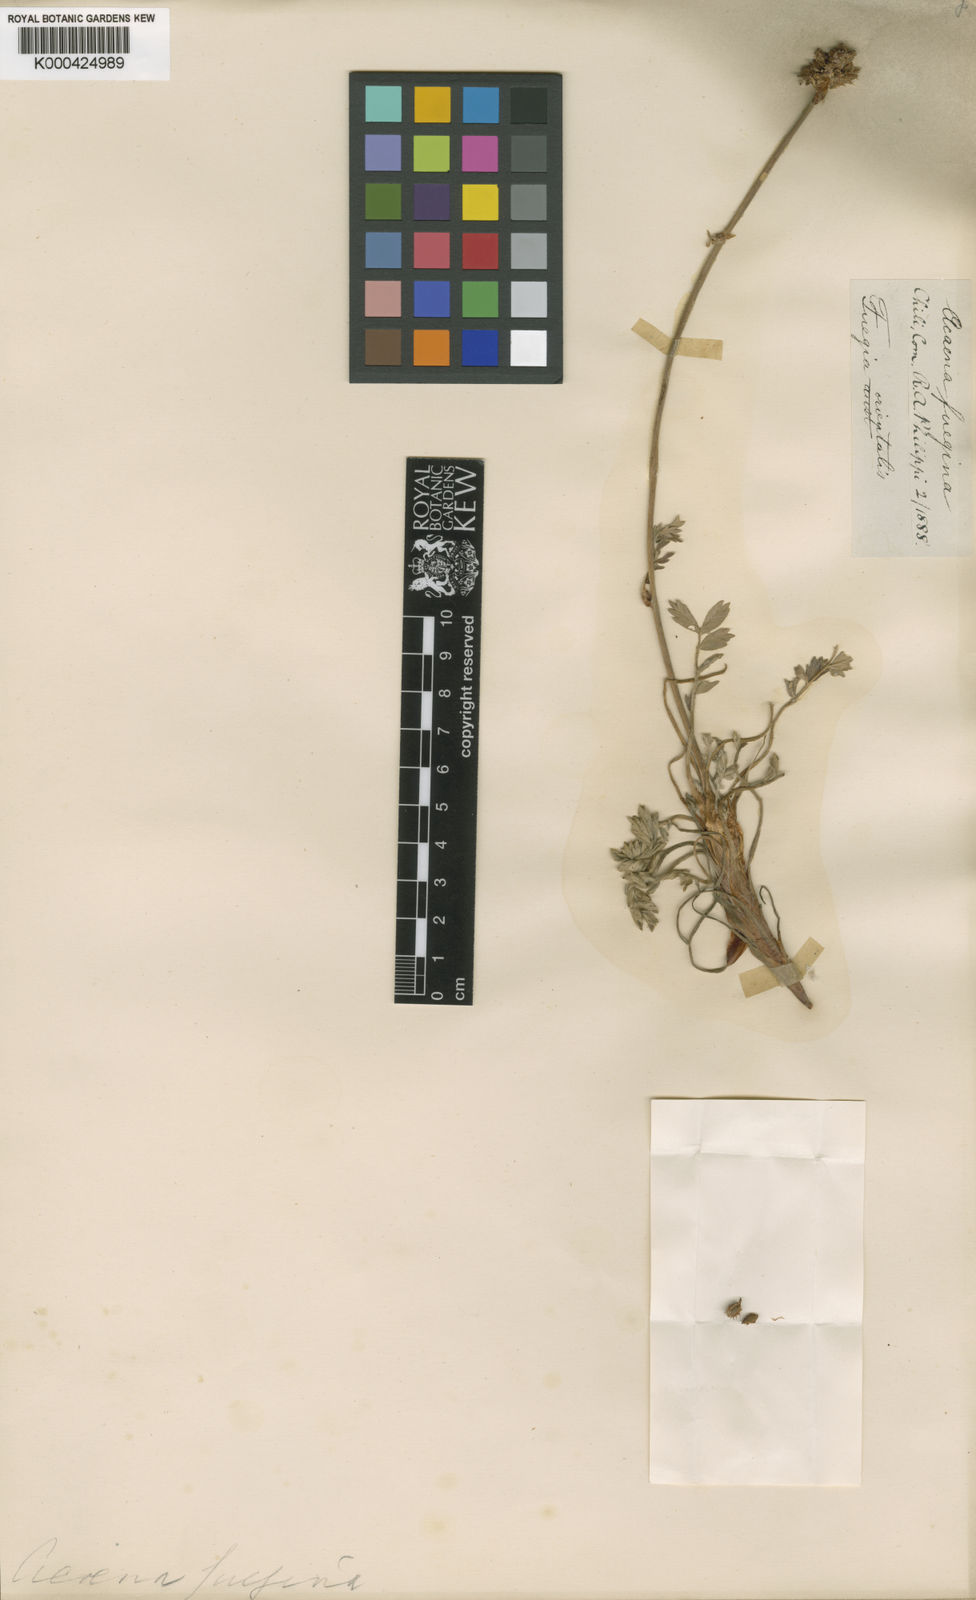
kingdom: Plantae
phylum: Tracheophyta
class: Magnoliopsida
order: Rosales
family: Rosaceae
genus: Acaena
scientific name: Acaena sericea
